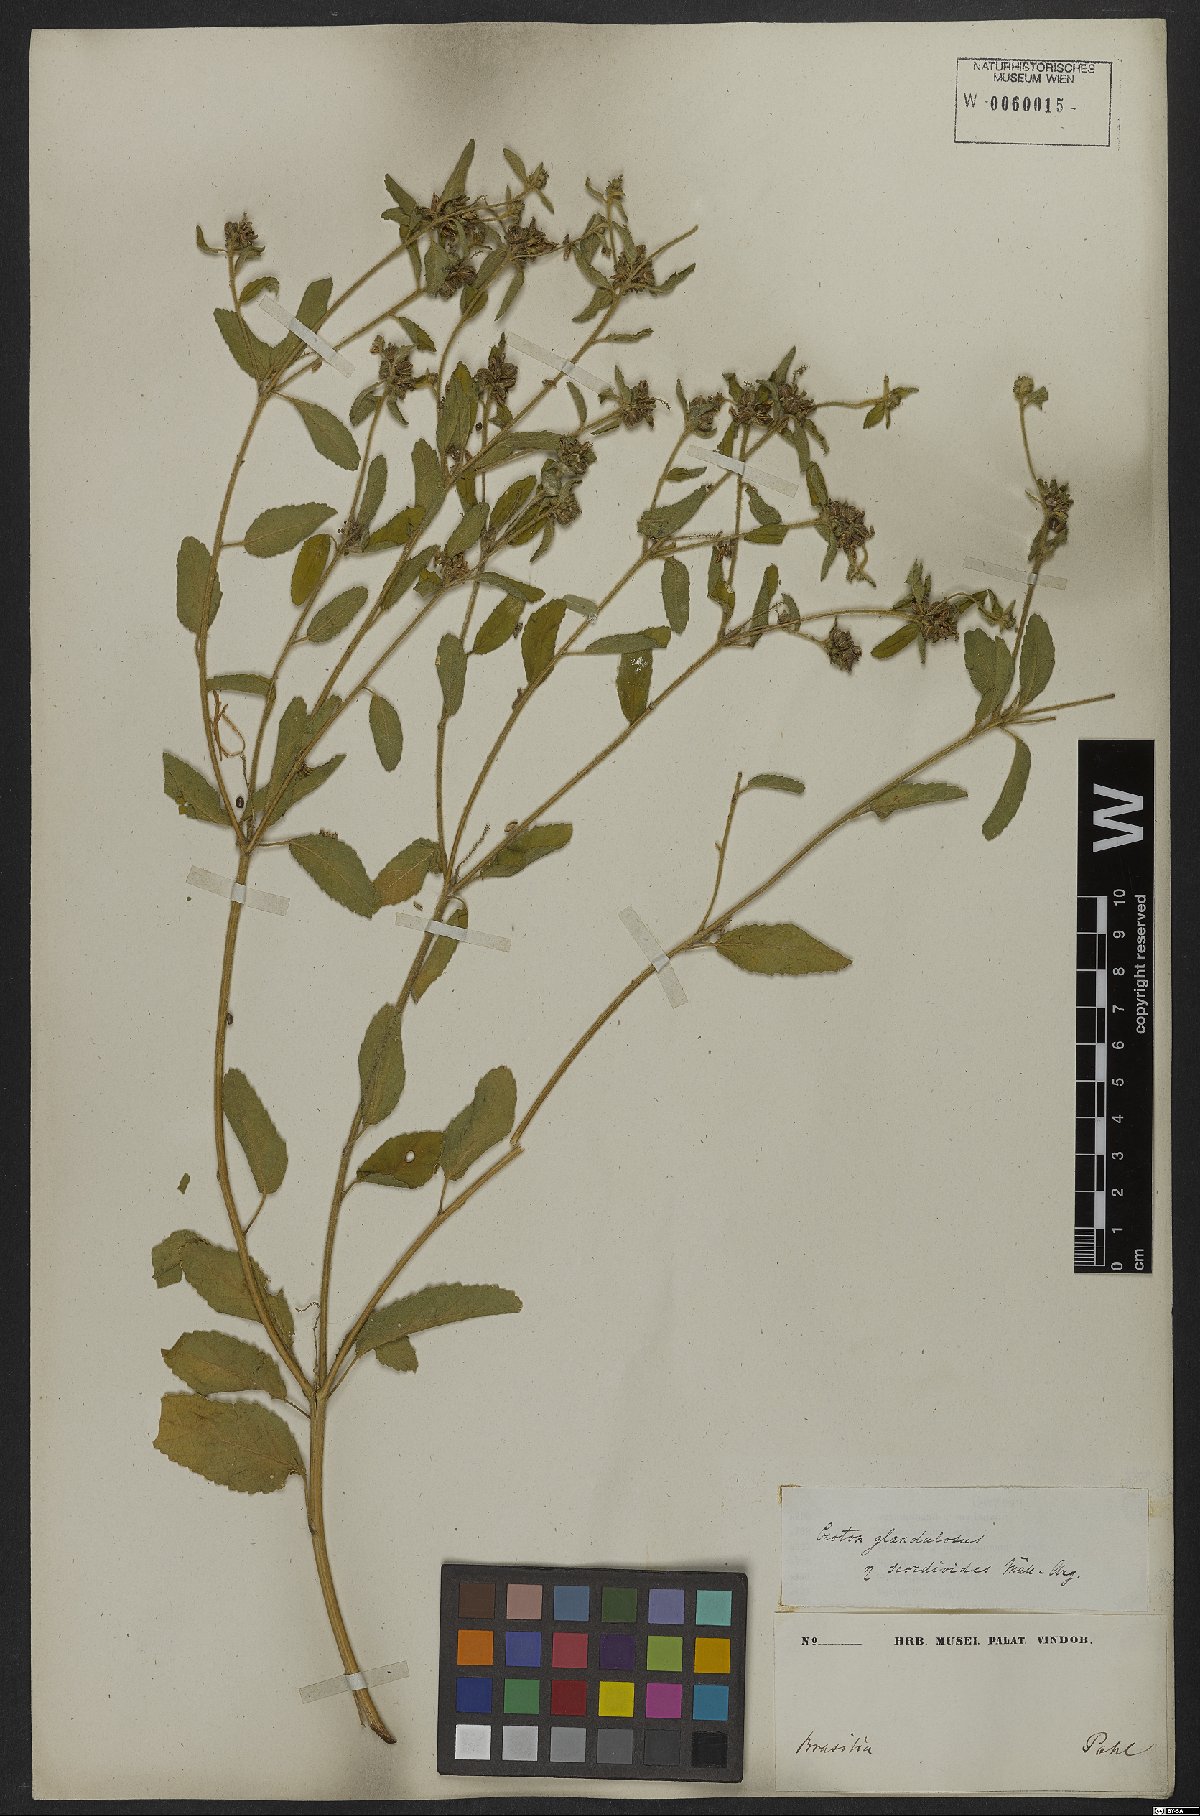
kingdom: Plantae
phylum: Tracheophyta
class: Magnoliopsida
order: Malpighiales
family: Euphorbiaceae
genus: Croton
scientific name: Croton glandulosus
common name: Tropic croton
